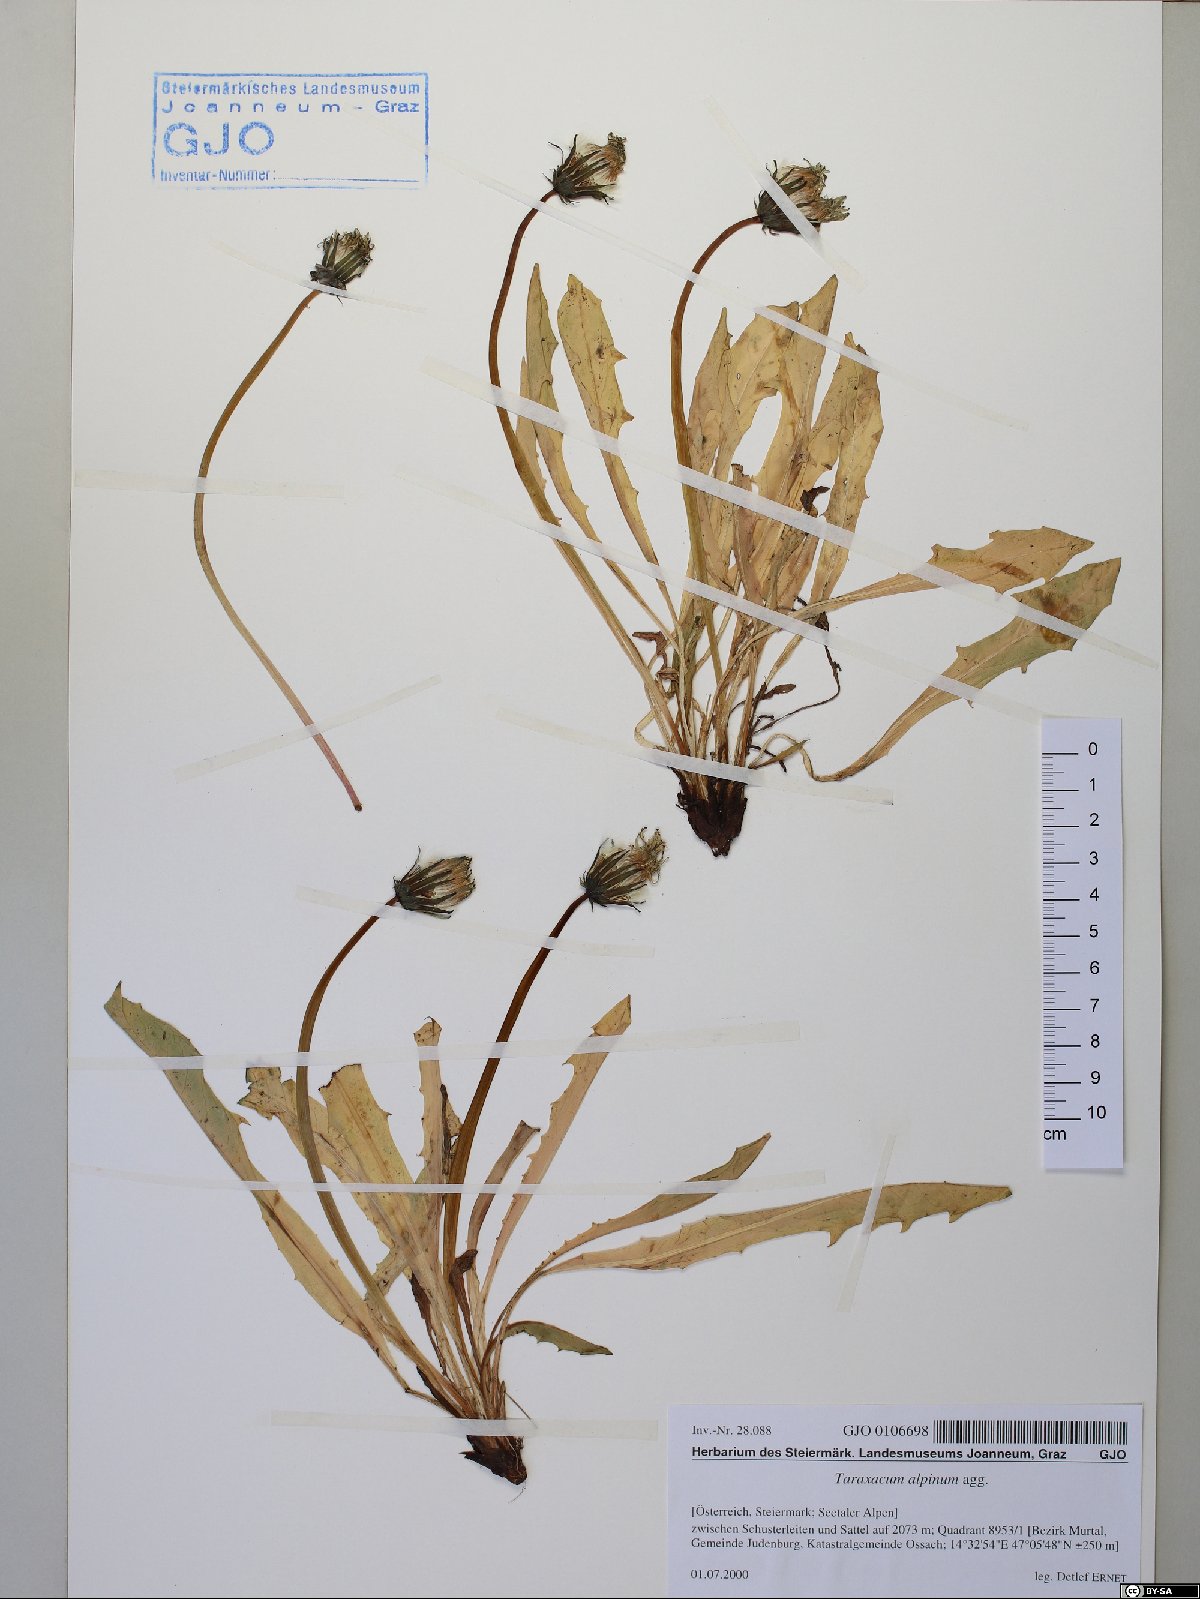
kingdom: Plantae
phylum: Tracheophyta
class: Magnoliopsida
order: Asterales
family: Asteraceae
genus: Taraxacum
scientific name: Taraxacum alpinum
